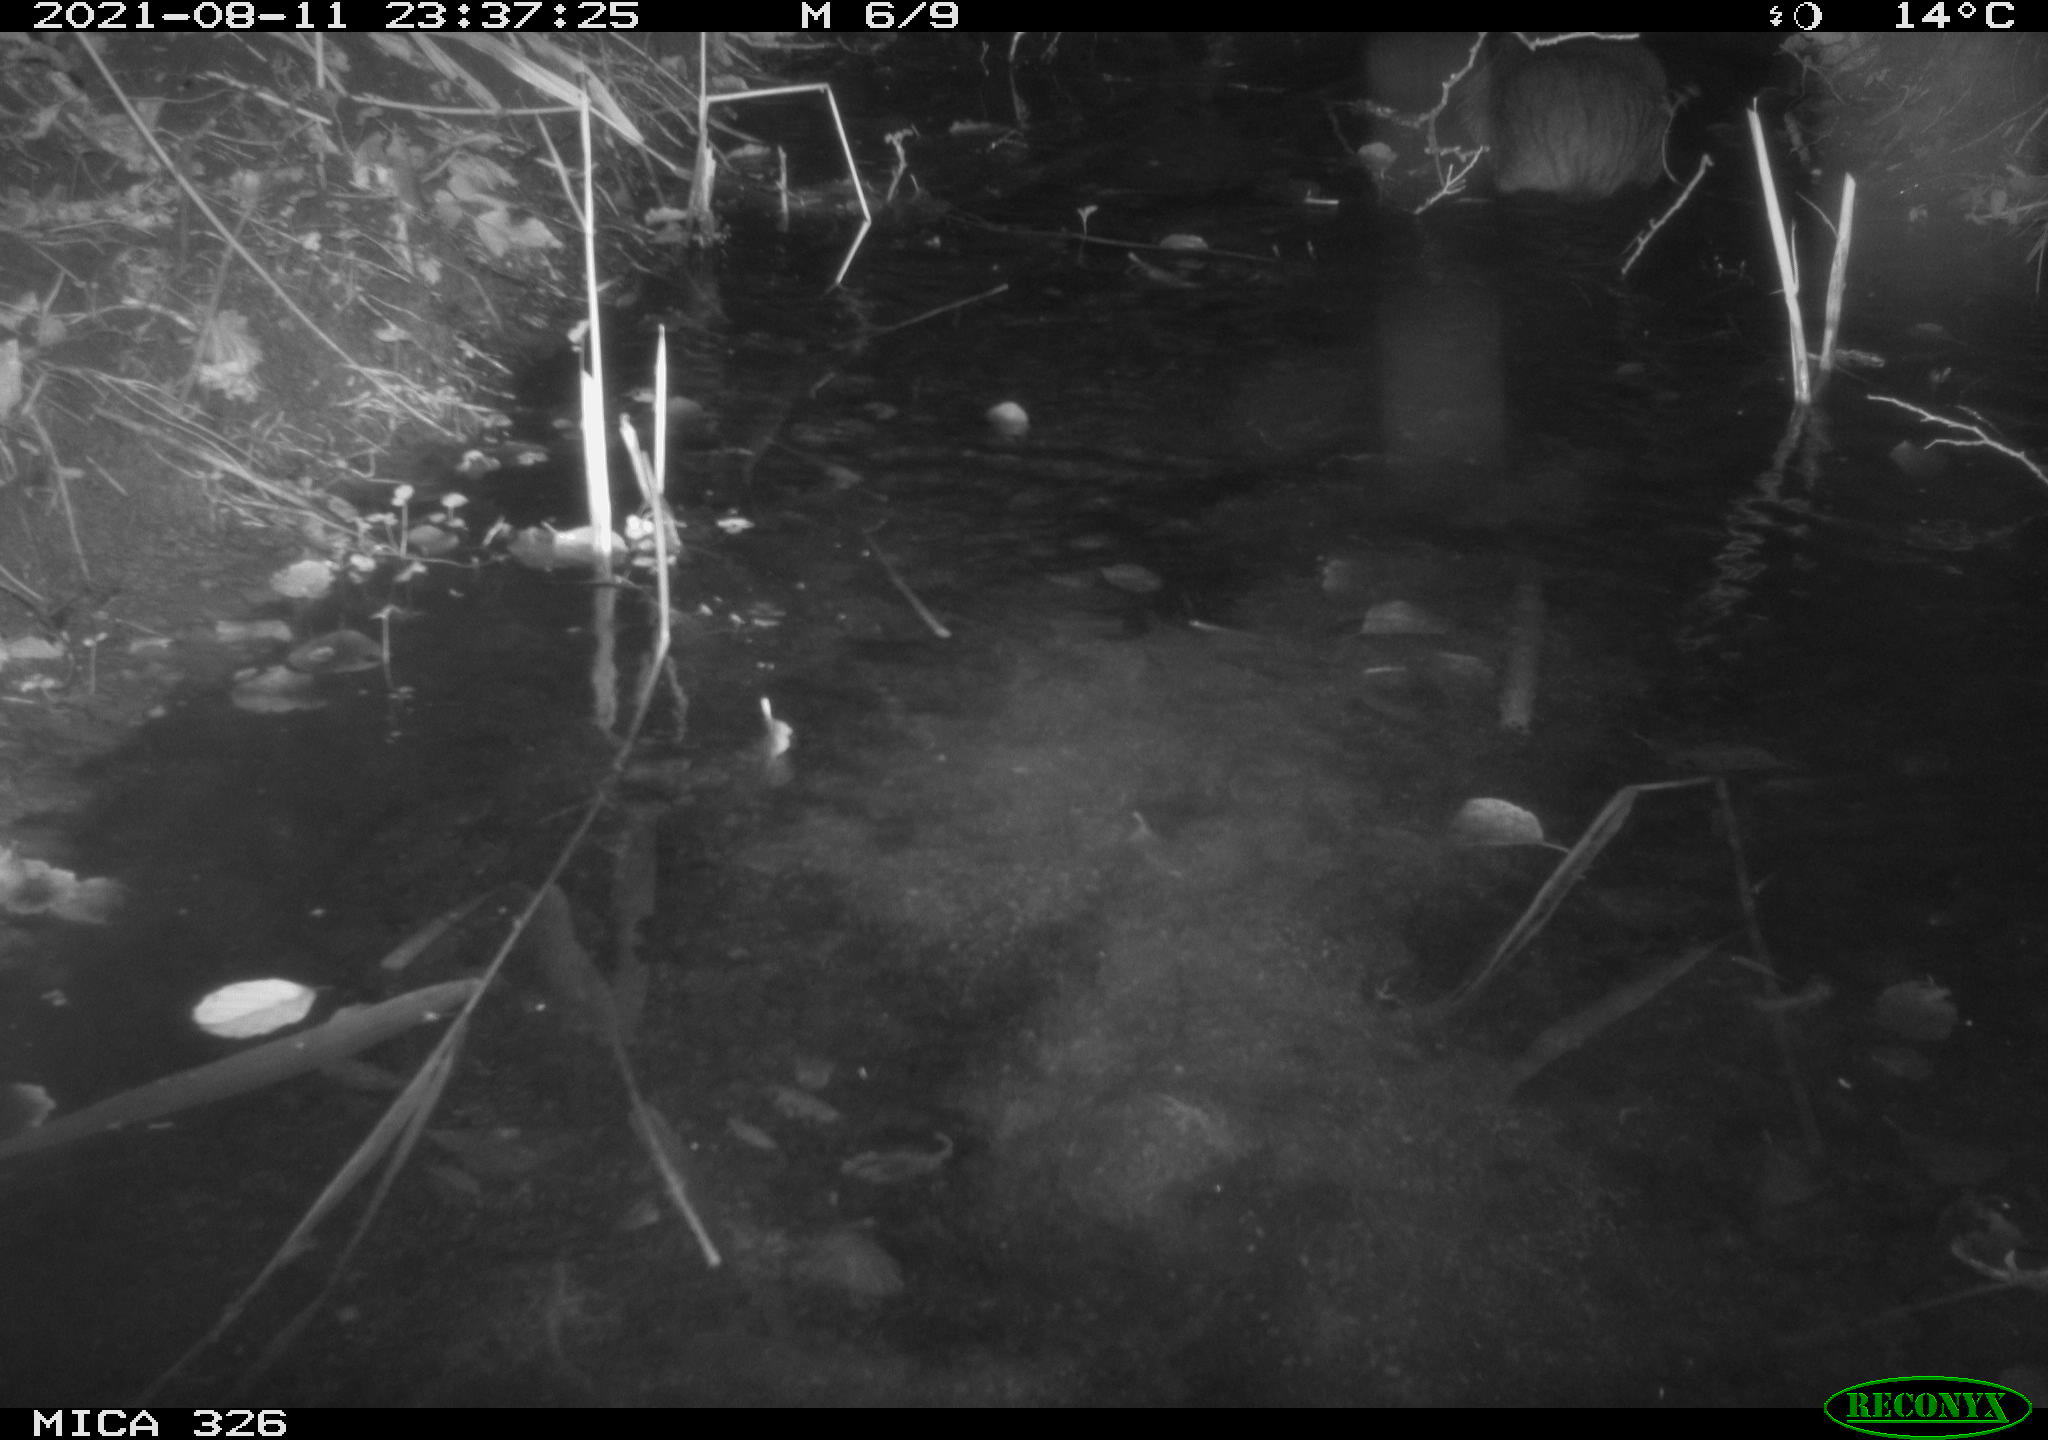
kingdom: Animalia
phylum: Chordata
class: Mammalia
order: Rodentia
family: Myocastoridae
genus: Myocastor
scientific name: Myocastor coypus
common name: Coypu
